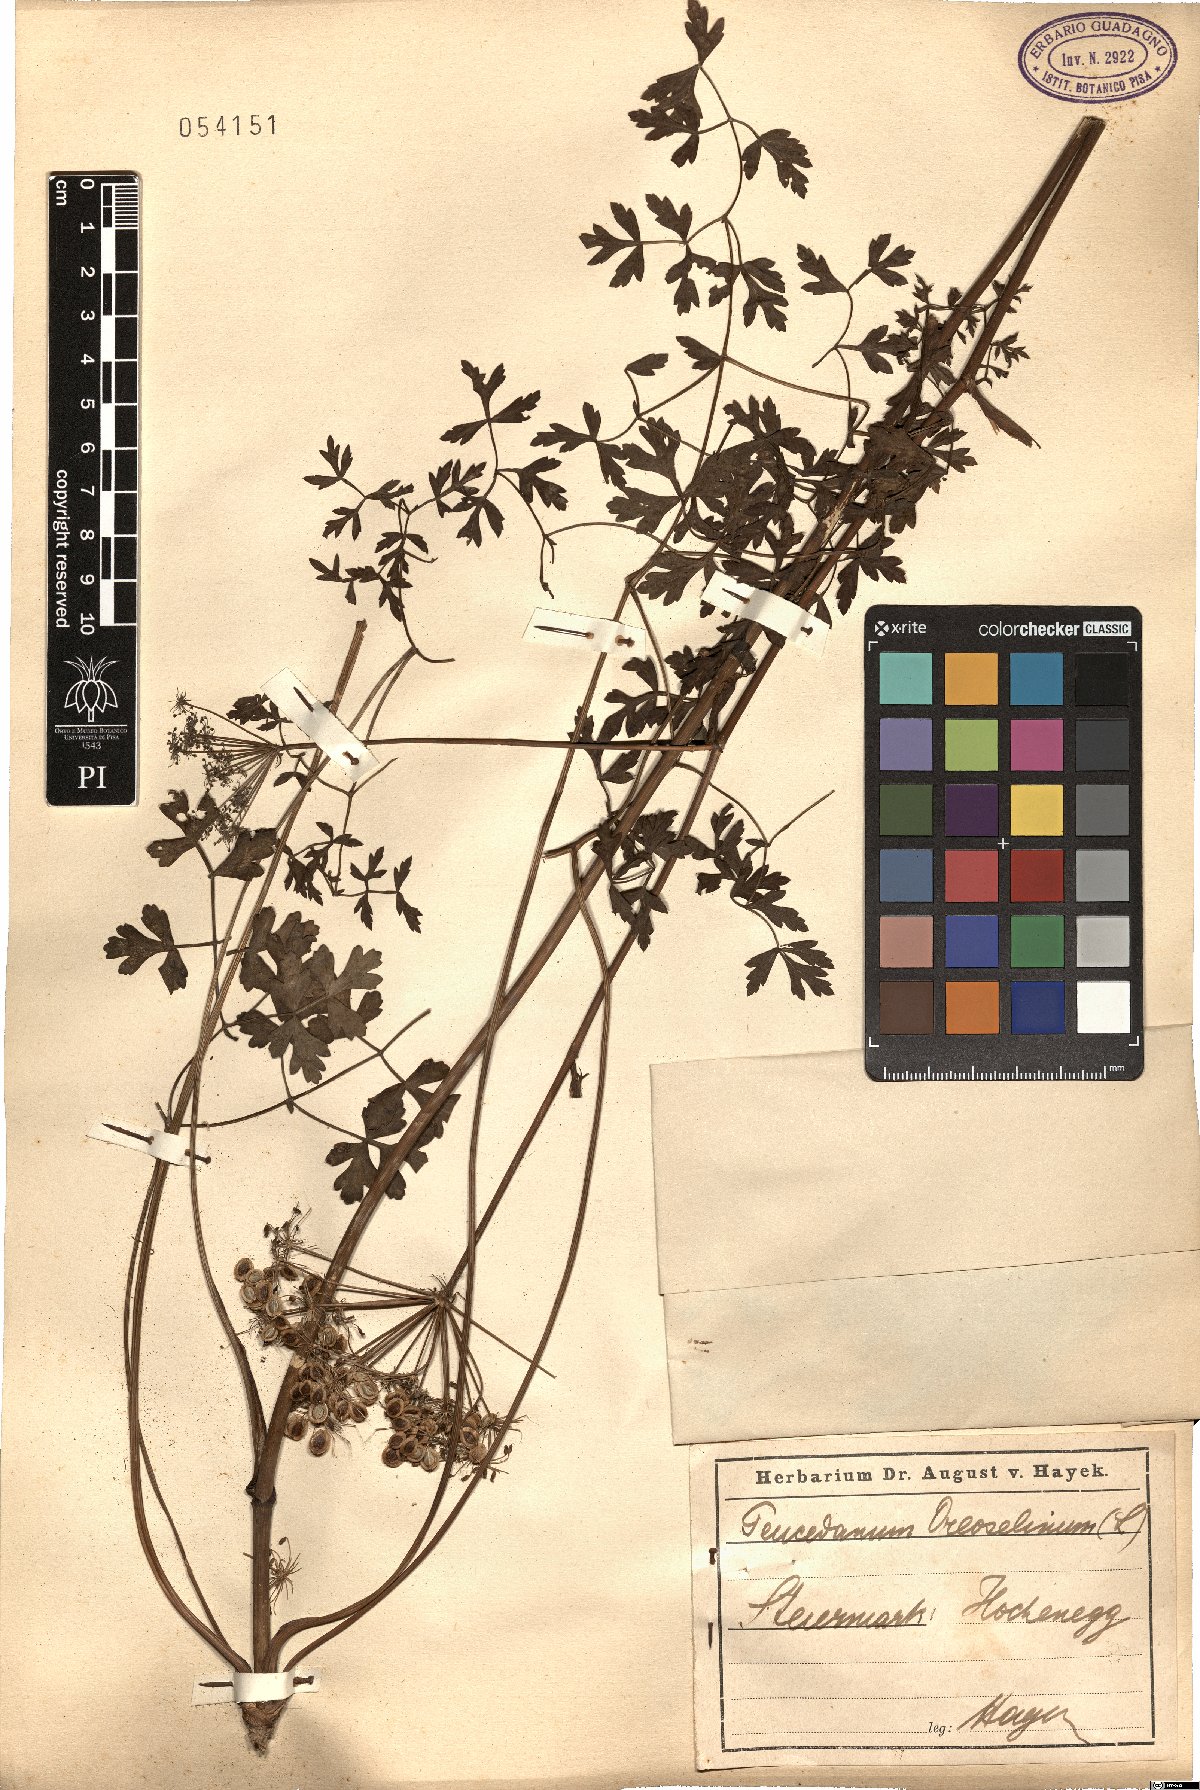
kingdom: Plantae
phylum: Tracheophyta
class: Magnoliopsida
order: Apiales
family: Apiaceae
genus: Oreoselinum
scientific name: Oreoselinum nigrum
